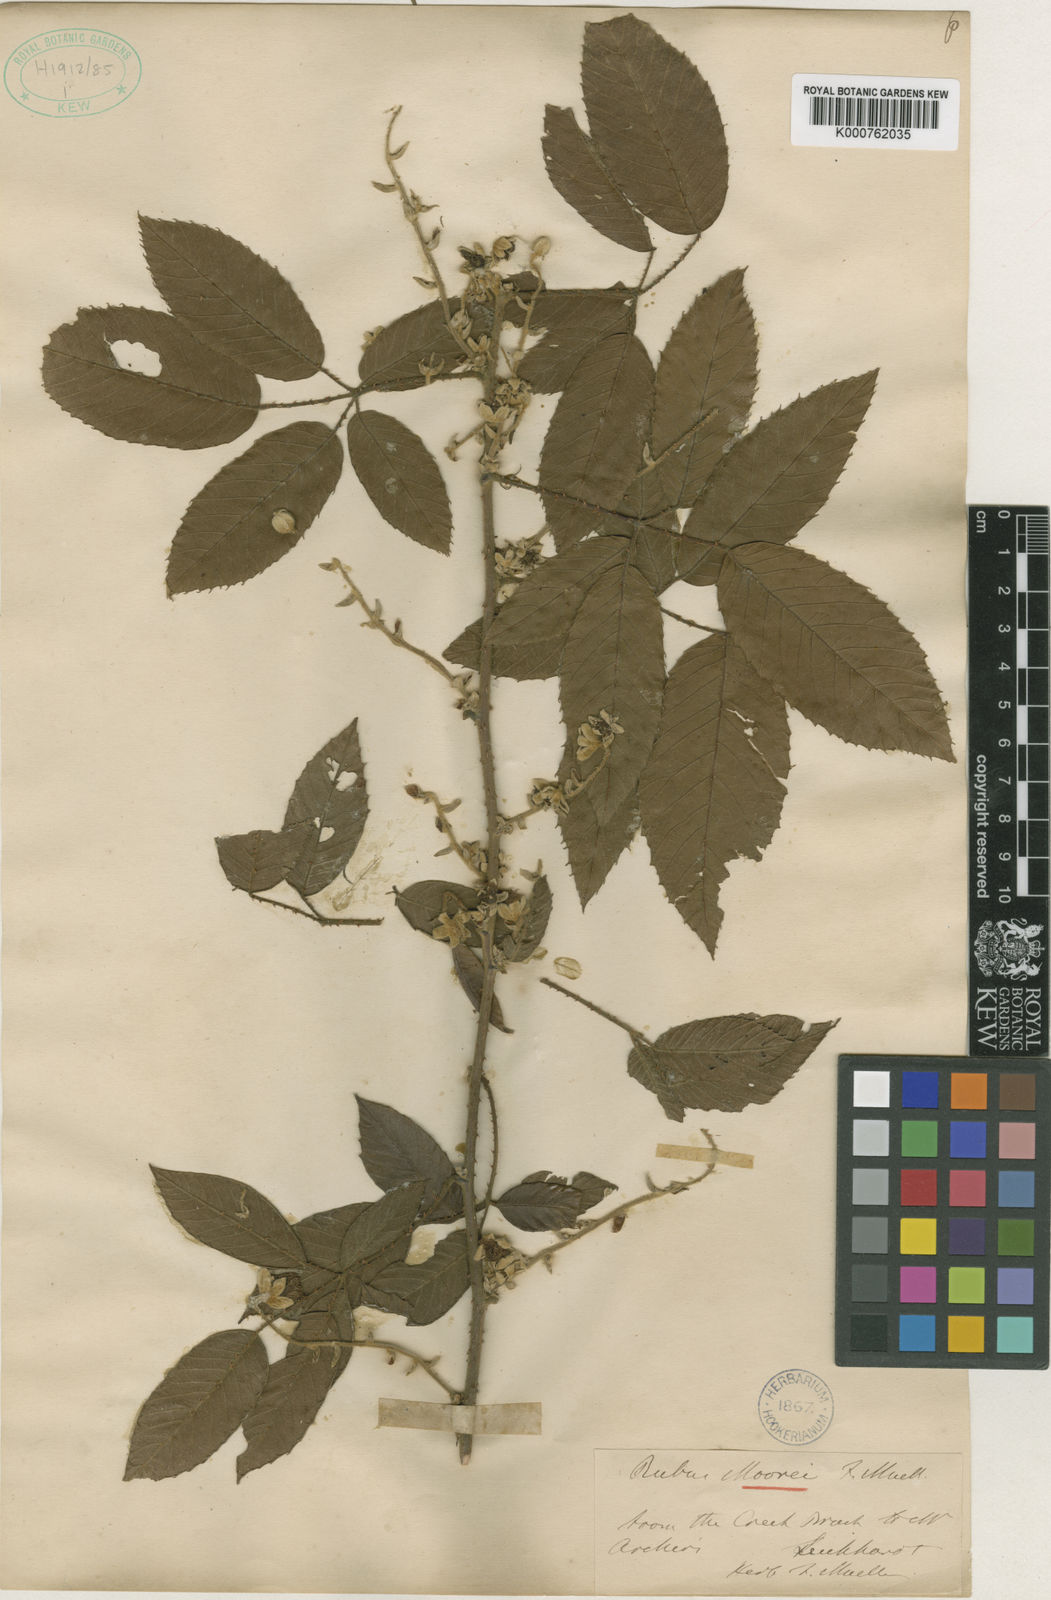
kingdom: Plantae
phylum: Tracheophyta
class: Magnoliopsida
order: Rosales
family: Rosaceae
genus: Rubus
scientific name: Rubus moorei
